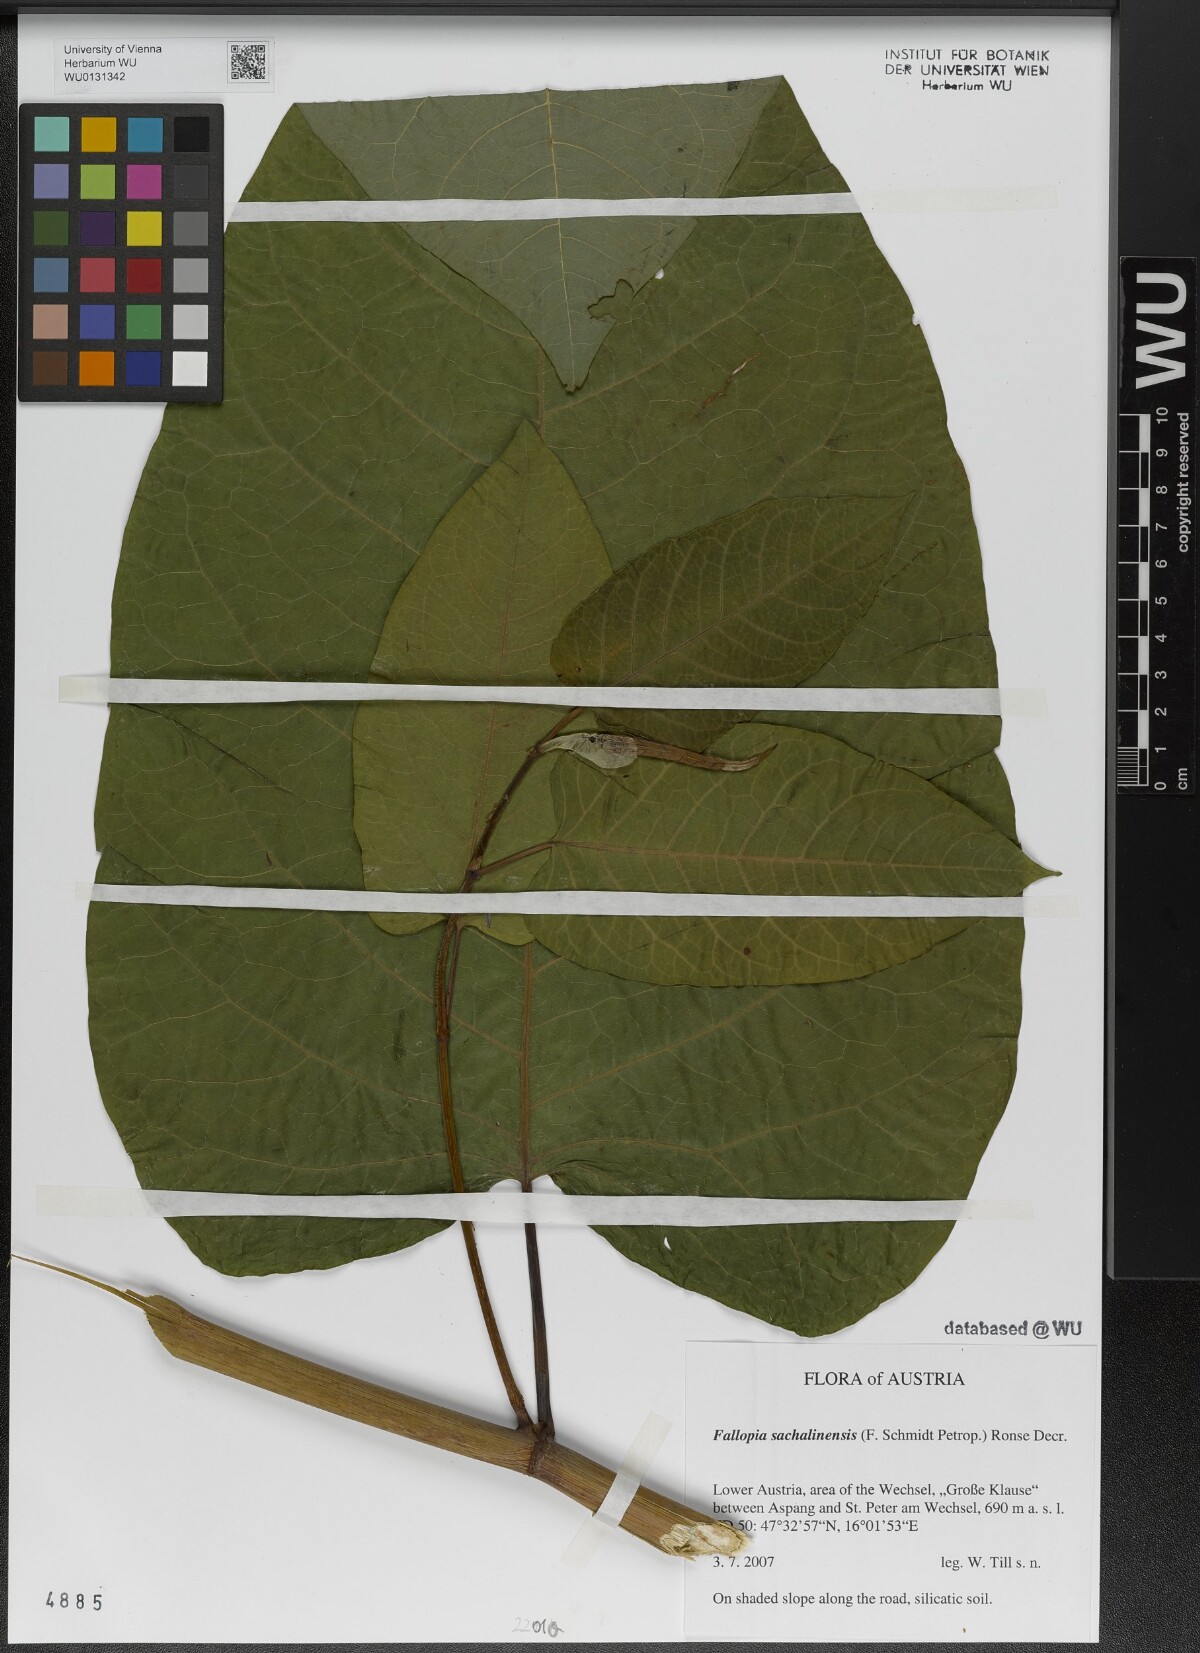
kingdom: Plantae
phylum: Tracheophyta
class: Magnoliopsida
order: Caryophyllales
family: Polygonaceae
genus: Reynoutria
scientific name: Reynoutria sachalinensis
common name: Giant knotweed
